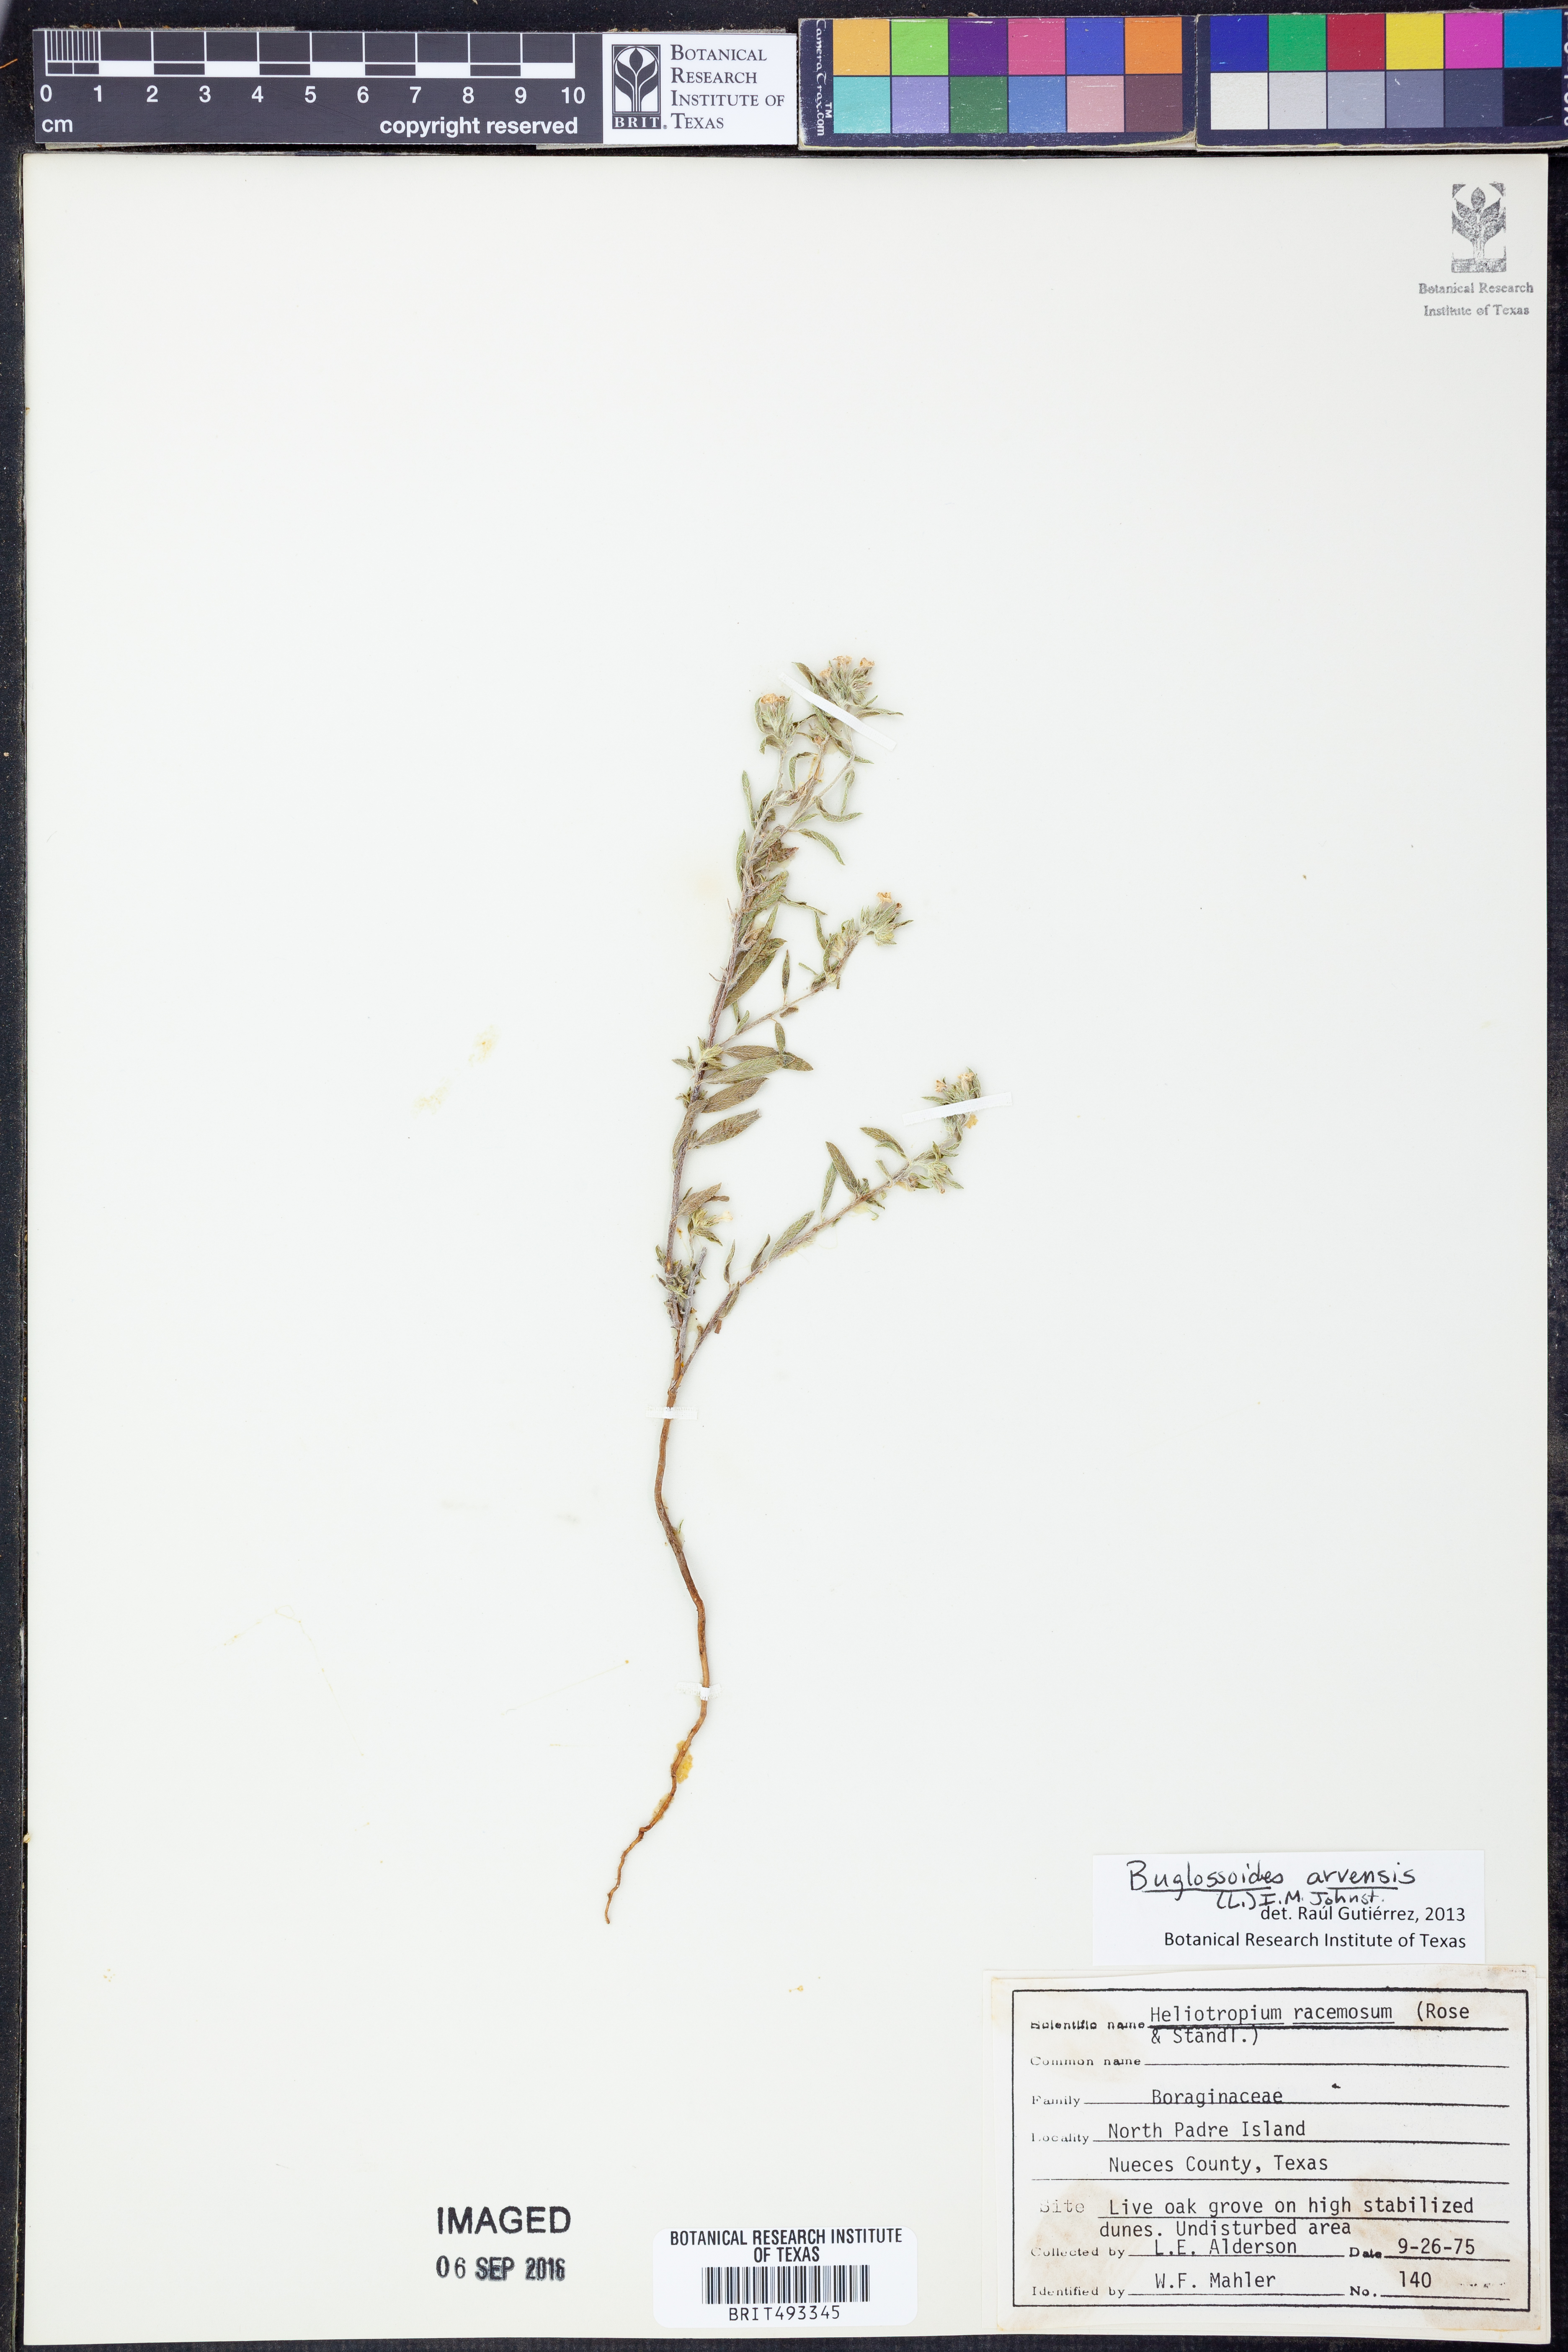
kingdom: Plantae
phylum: Tracheophyta
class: Magnoliopsida
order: Boraginales
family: Boraginaceae
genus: Buglossoides
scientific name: Buglossoides arvensis
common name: Corn gromwell
